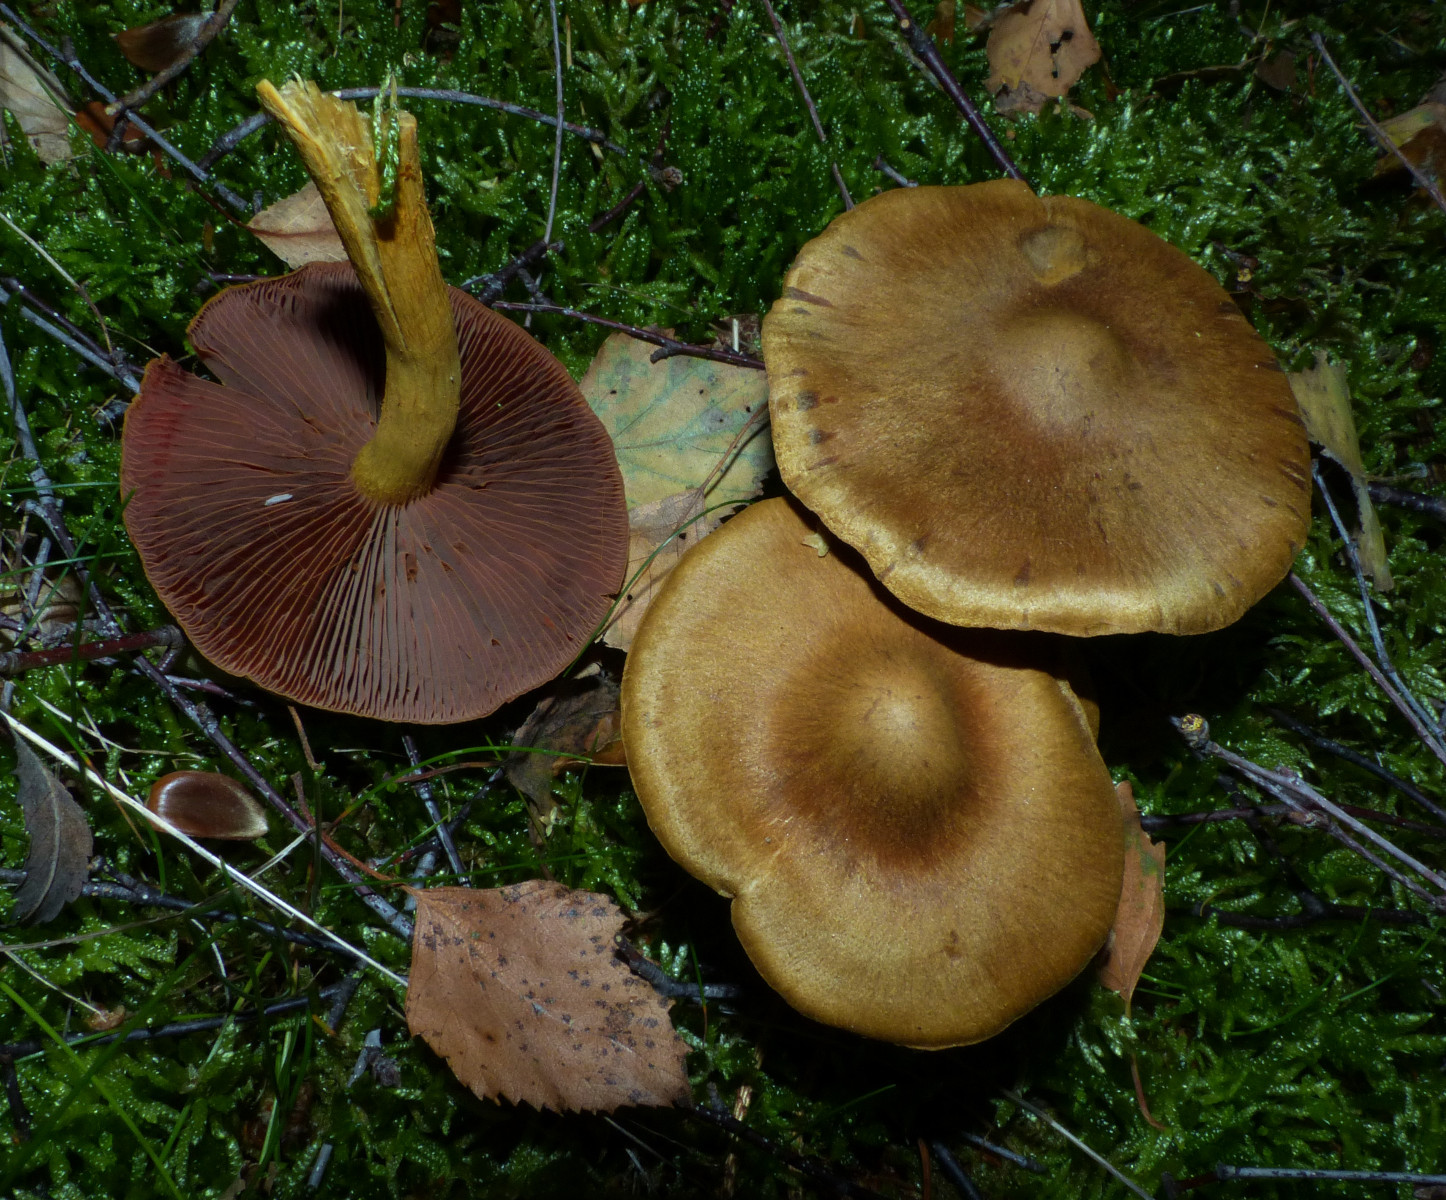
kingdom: Fungi
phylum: Basidiomycota
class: Agaricomycetes
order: Agaricales
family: Cortinariaceae
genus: Cortinarius
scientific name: Cortinarius
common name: cinnoberbladet slørhat
